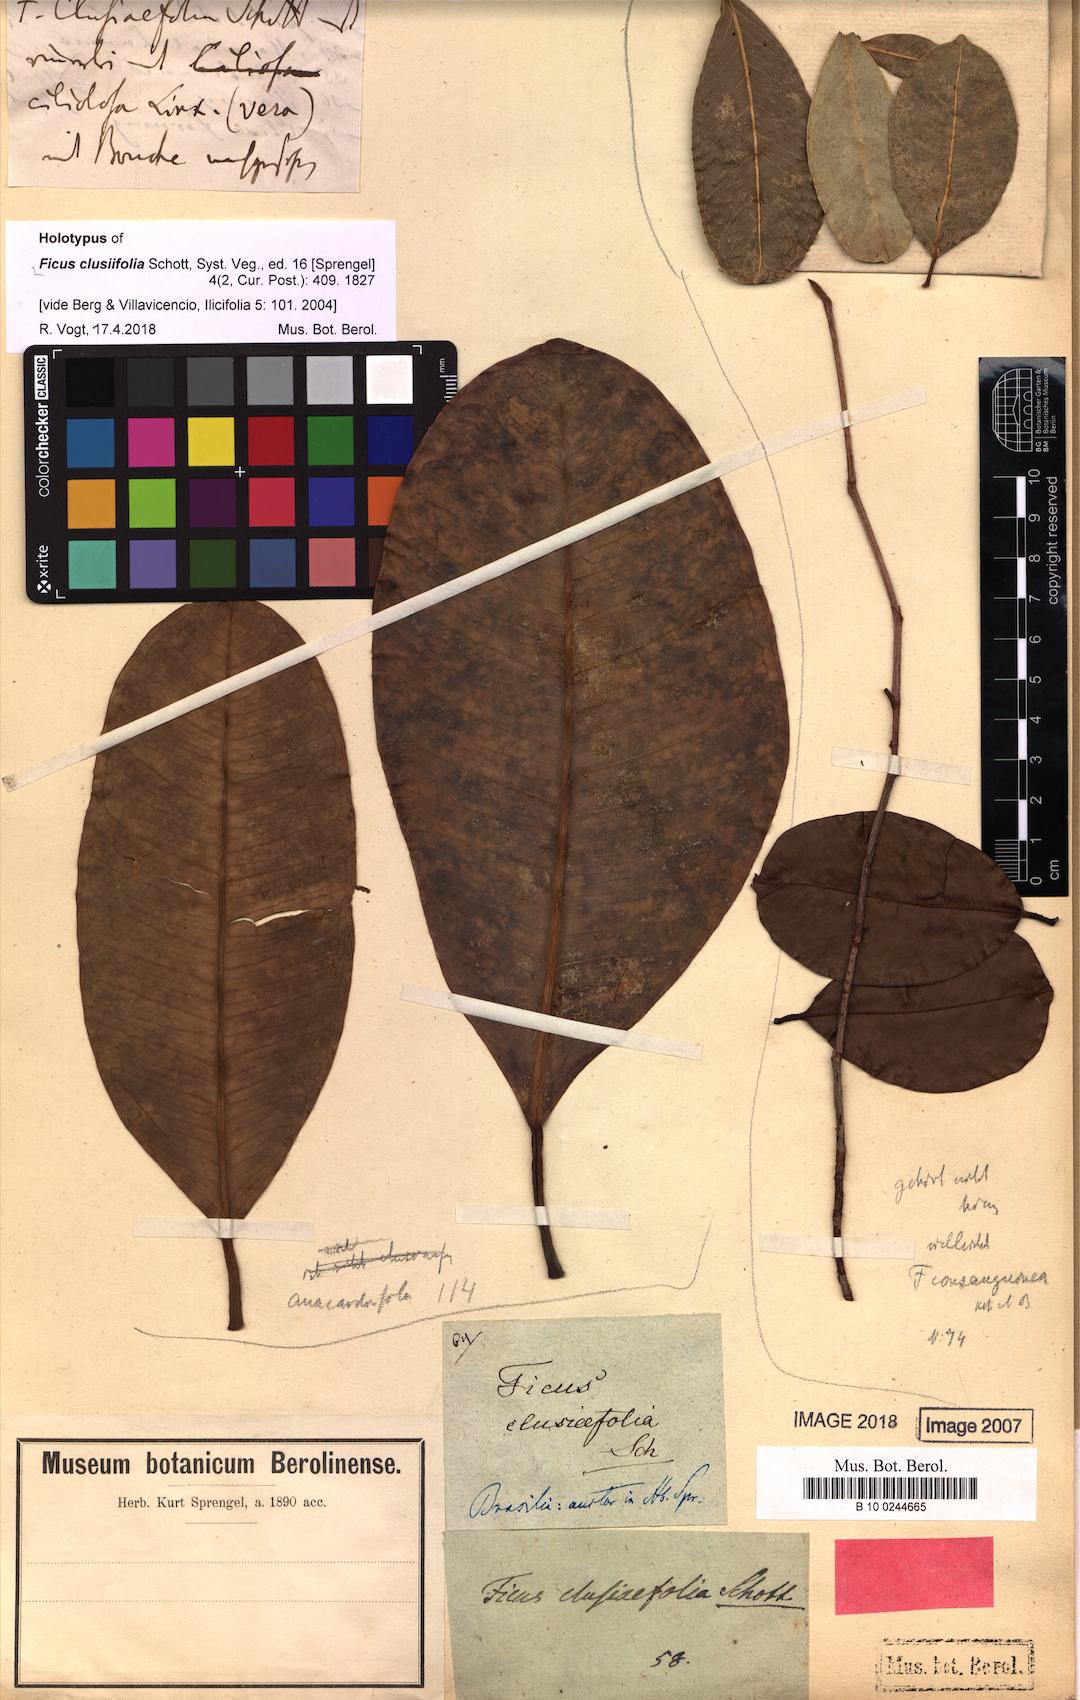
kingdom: Plantae
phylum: Tracheophyta
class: Magnoliopsida
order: Rosales
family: Moraceae
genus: Ficus
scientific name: Ficus americana
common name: Jamaican cherry fig
